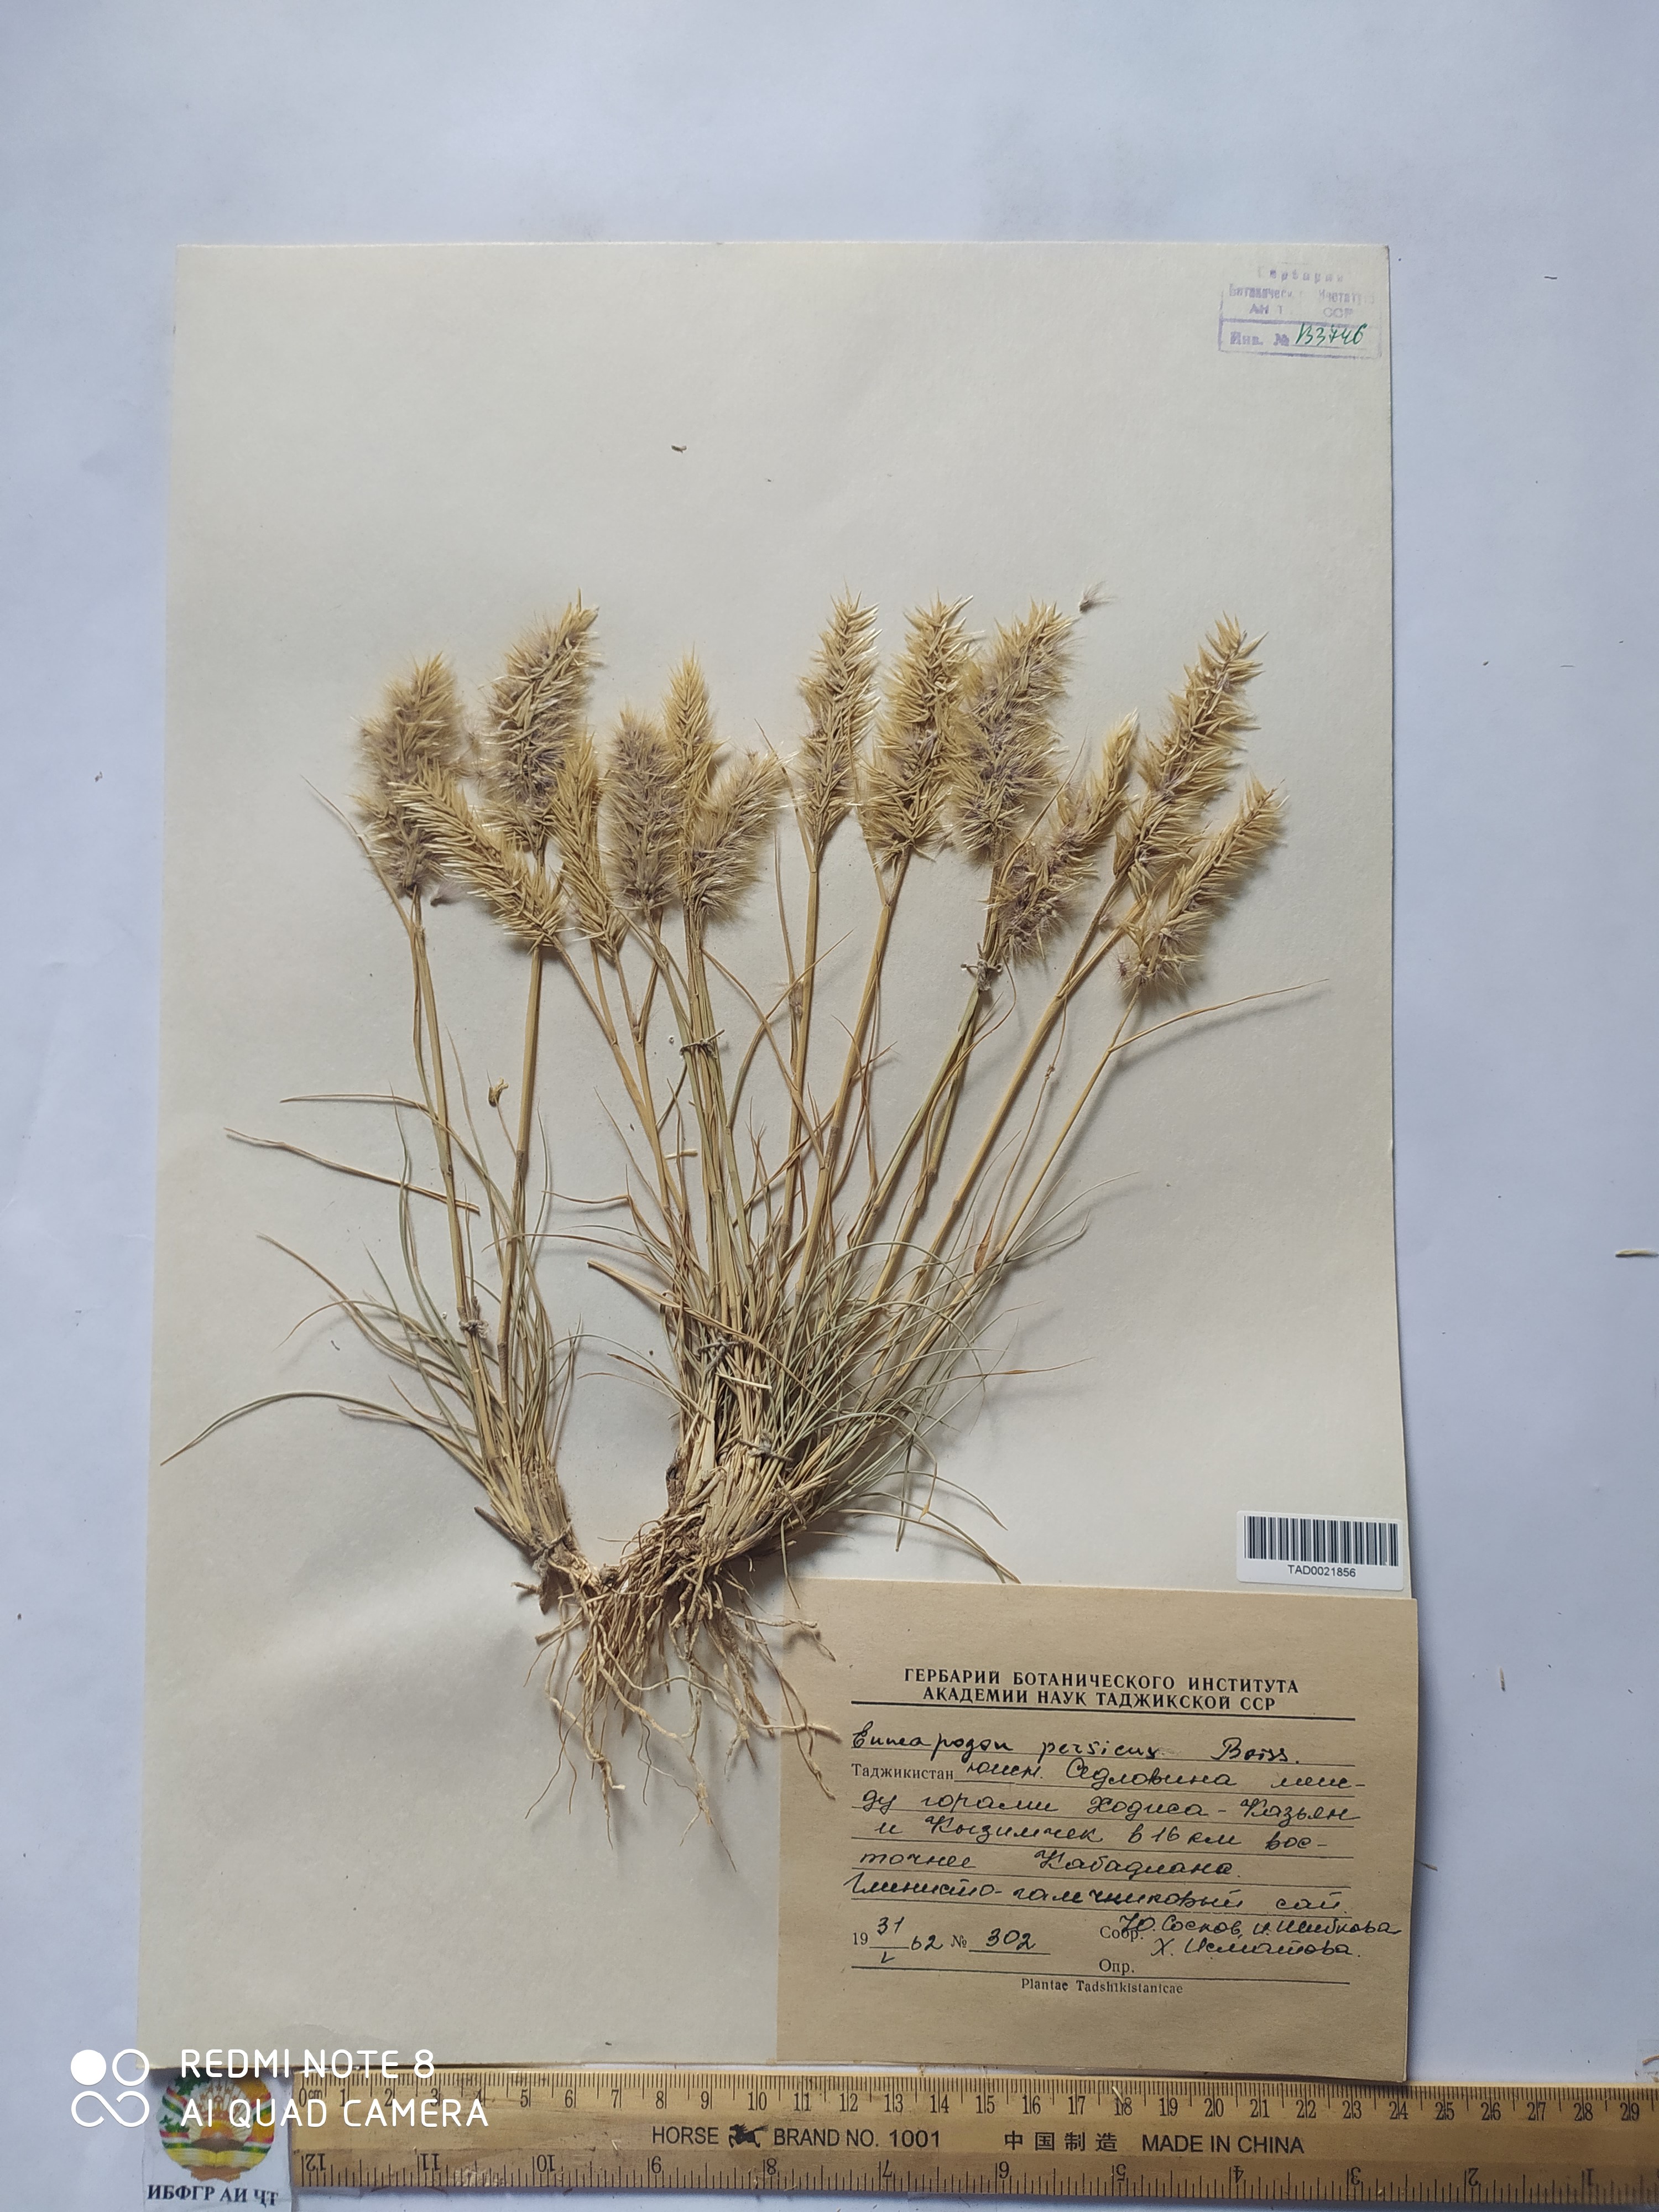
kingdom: Plantae
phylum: Tracheophyta
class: Liliopsida
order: Poales
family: Poaceae
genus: Enneapogon
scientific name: Enneapogon persicus
